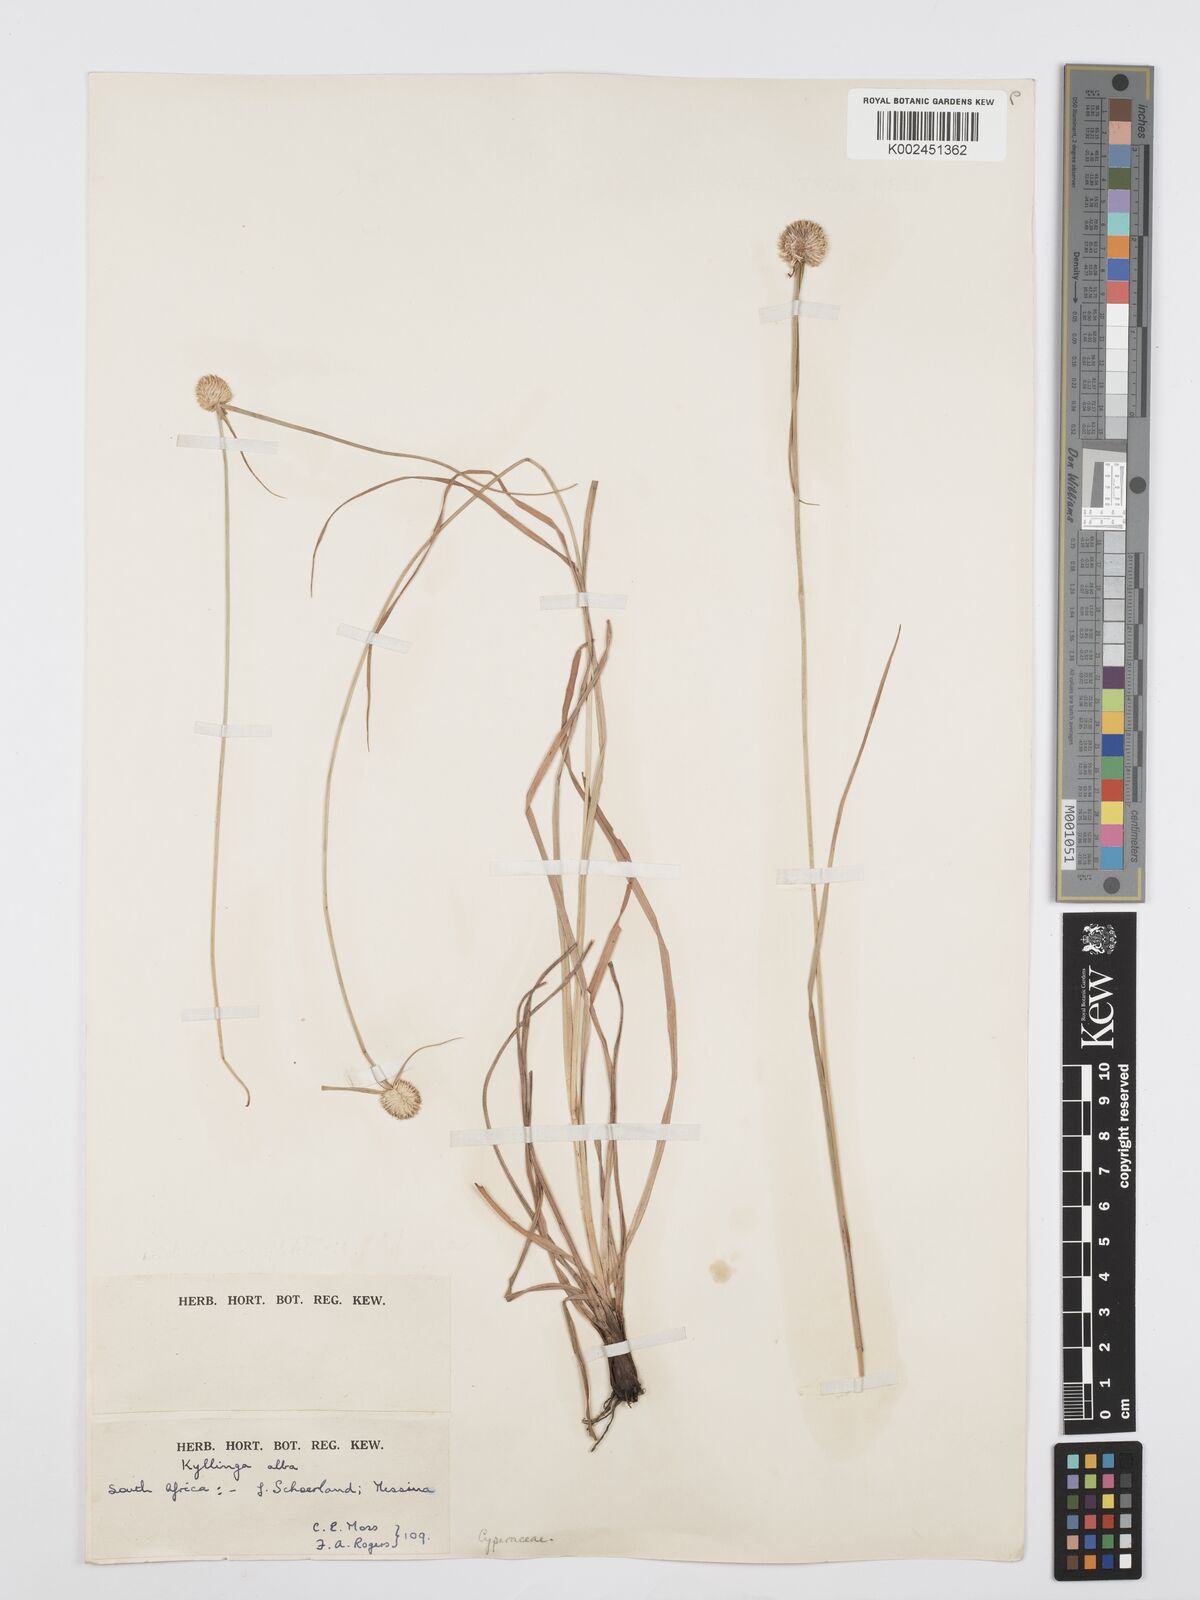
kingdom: Plantae
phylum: Tracheophyta
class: Liliopsida
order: Poales
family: Cyperaceae
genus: Cyperus
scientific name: Cyperus
